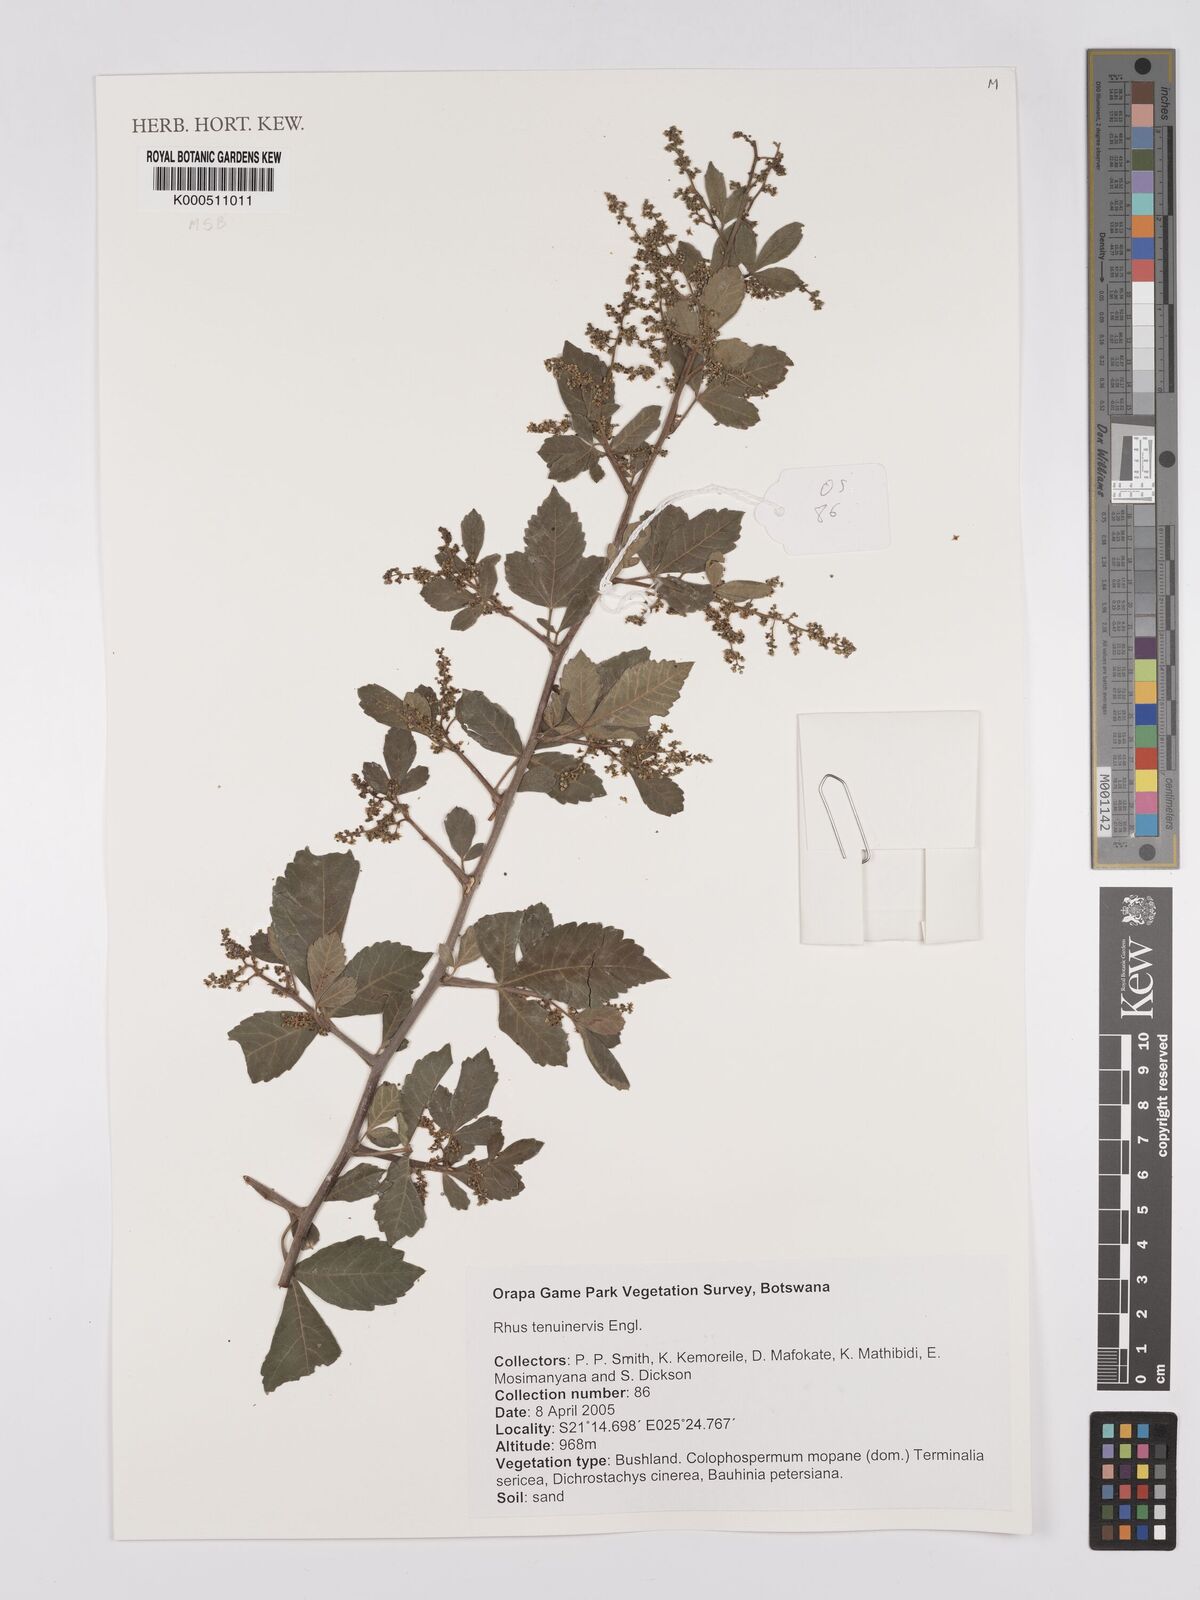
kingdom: Plantae
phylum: Tracheophyta
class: Magnoliopsida
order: Sapindales
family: Anacardiaceae
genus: Searsia
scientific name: Searsia tenuinervis
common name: Hyaena taaibos
